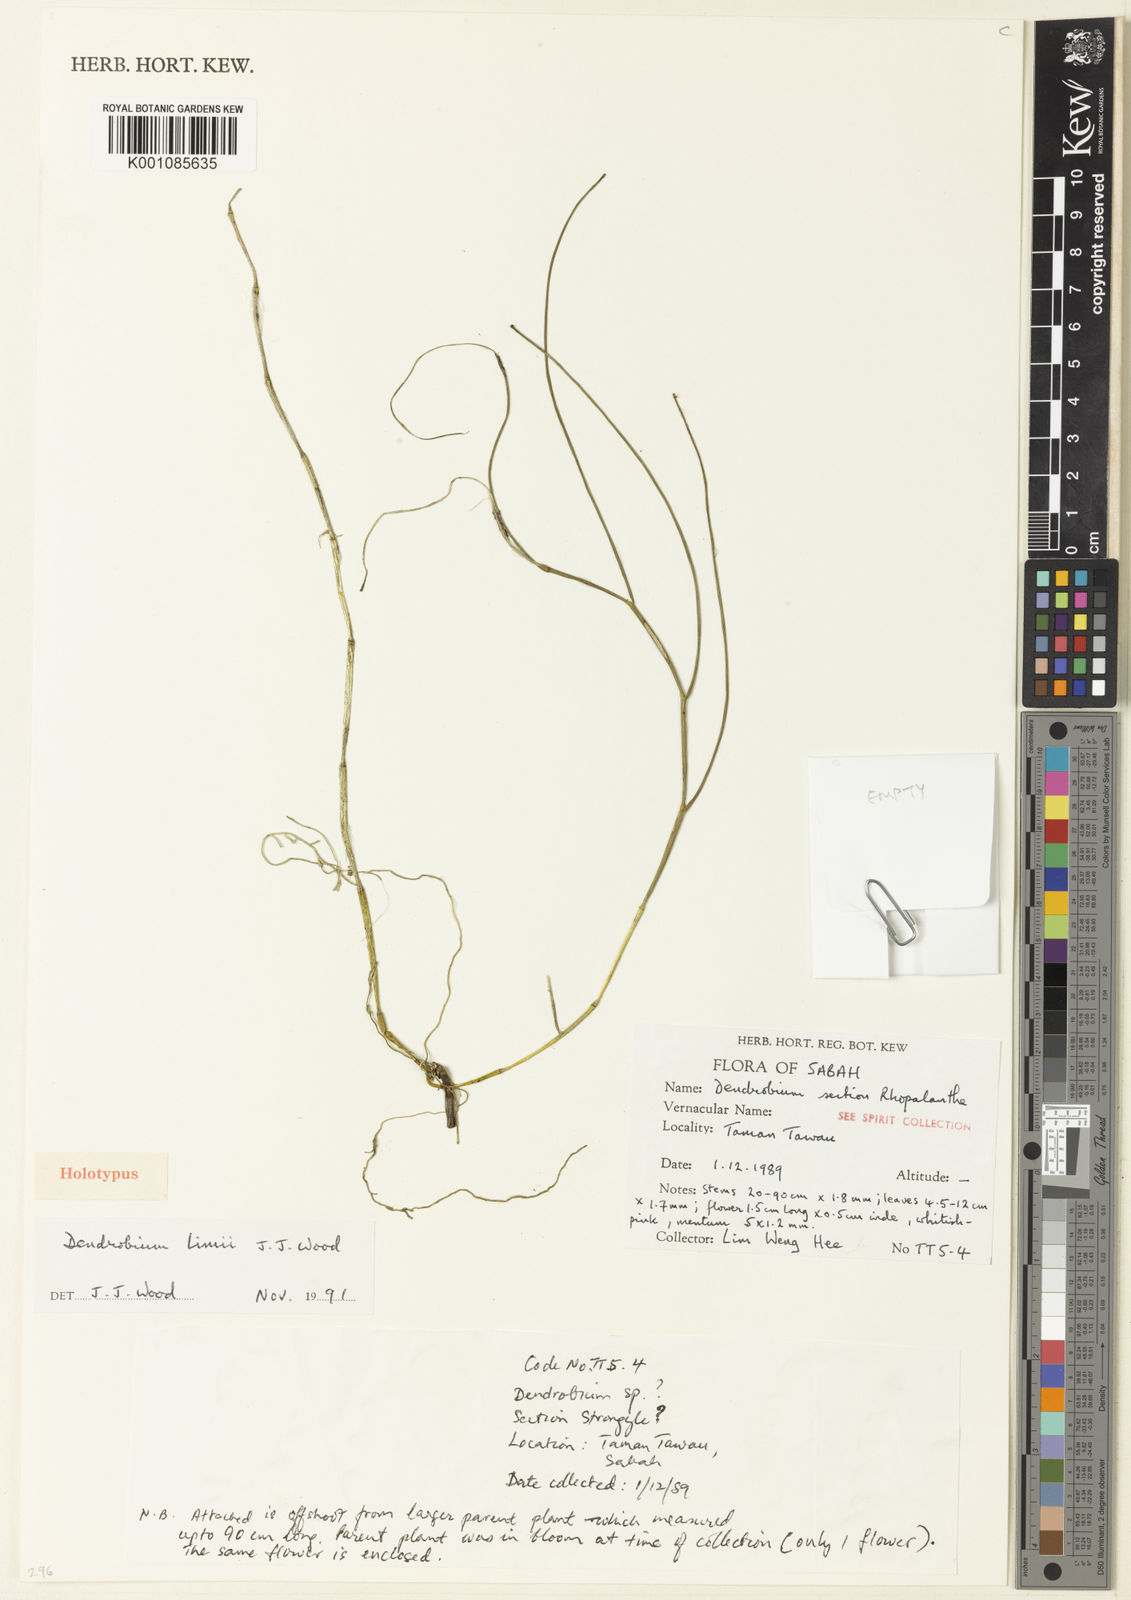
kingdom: Plantae
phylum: Tracheophyta
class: Liliopsida
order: Asparagales
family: Orchidaceae
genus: Dendrobium
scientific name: Dendrobium limii
